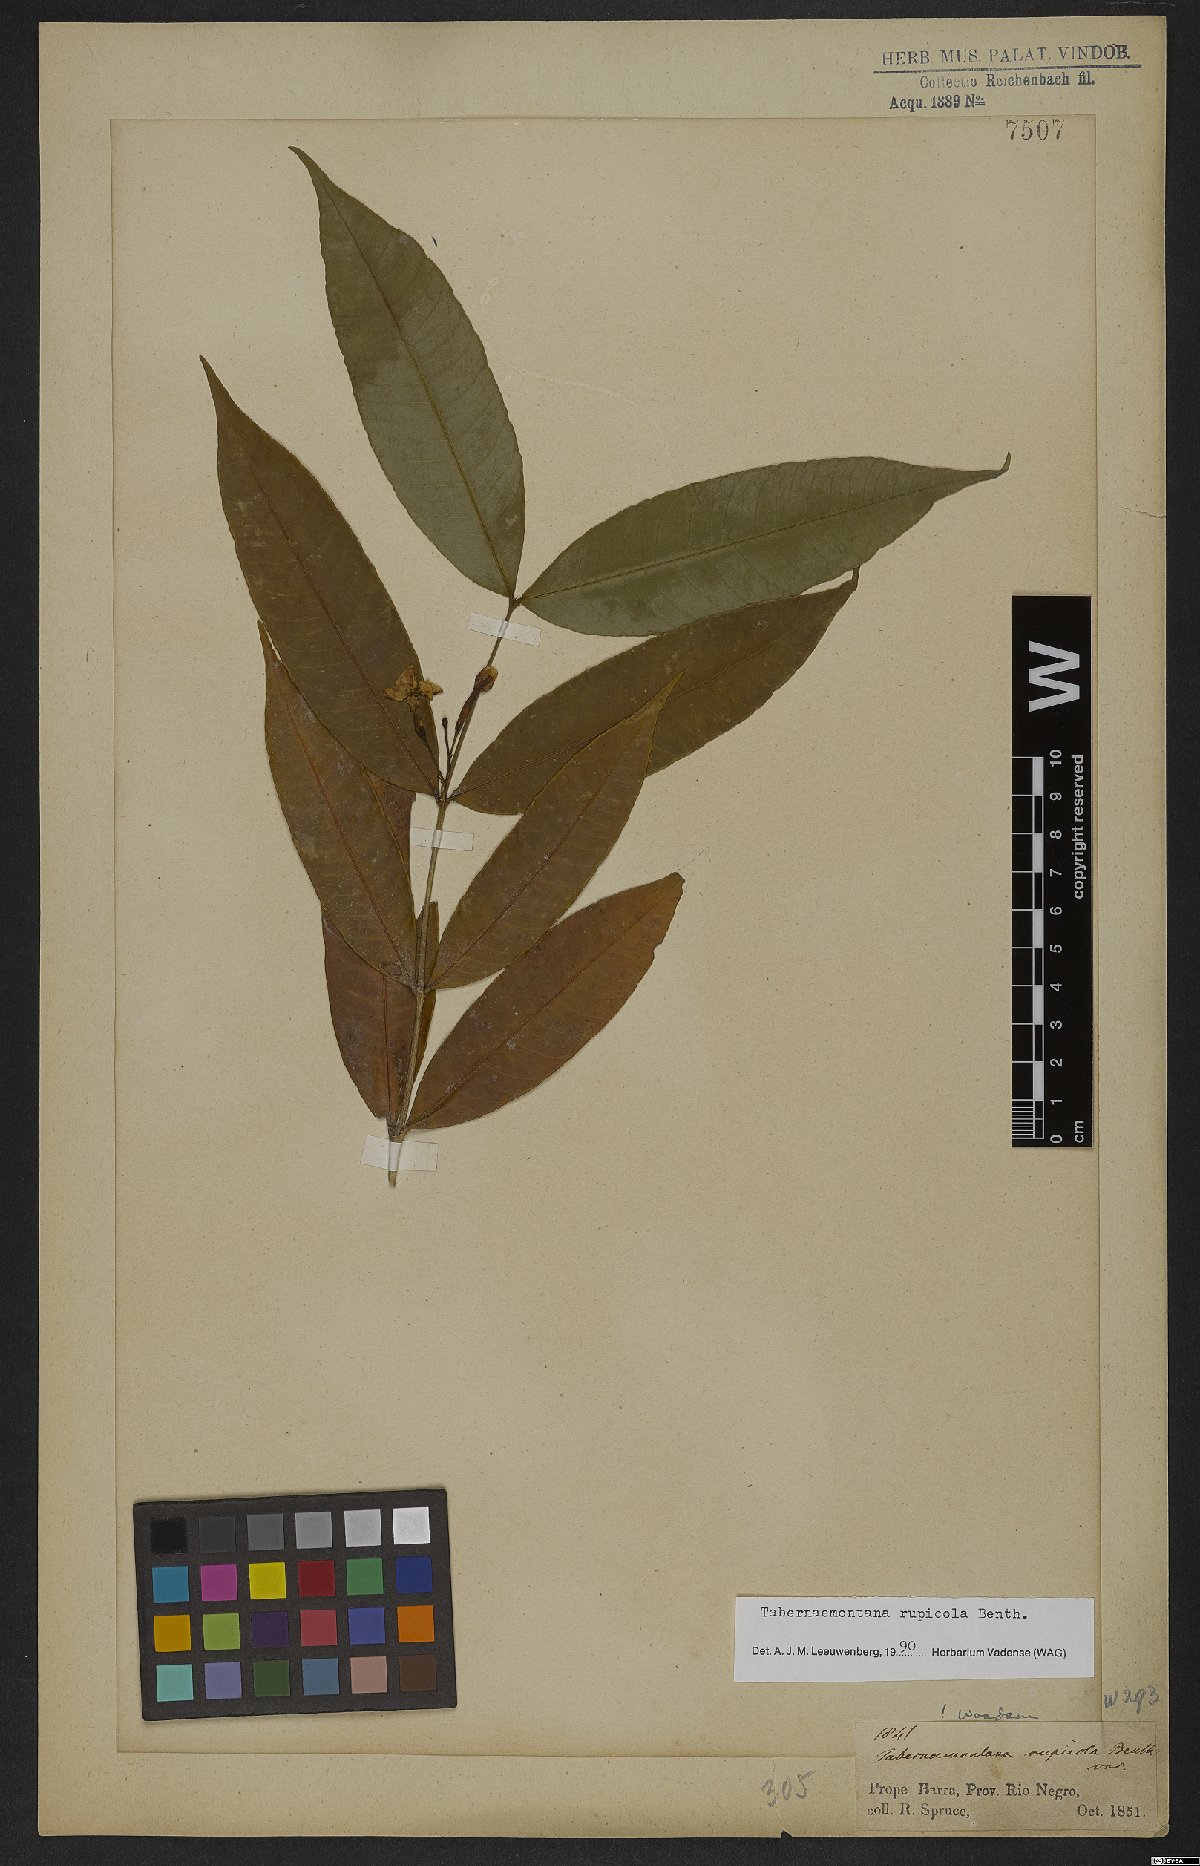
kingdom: Plantae
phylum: Tracheophyta
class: Magnoliopsida
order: Gentianales
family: Apocynaceae
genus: Tabernaemontana
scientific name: Tabernaemontana rupicola
